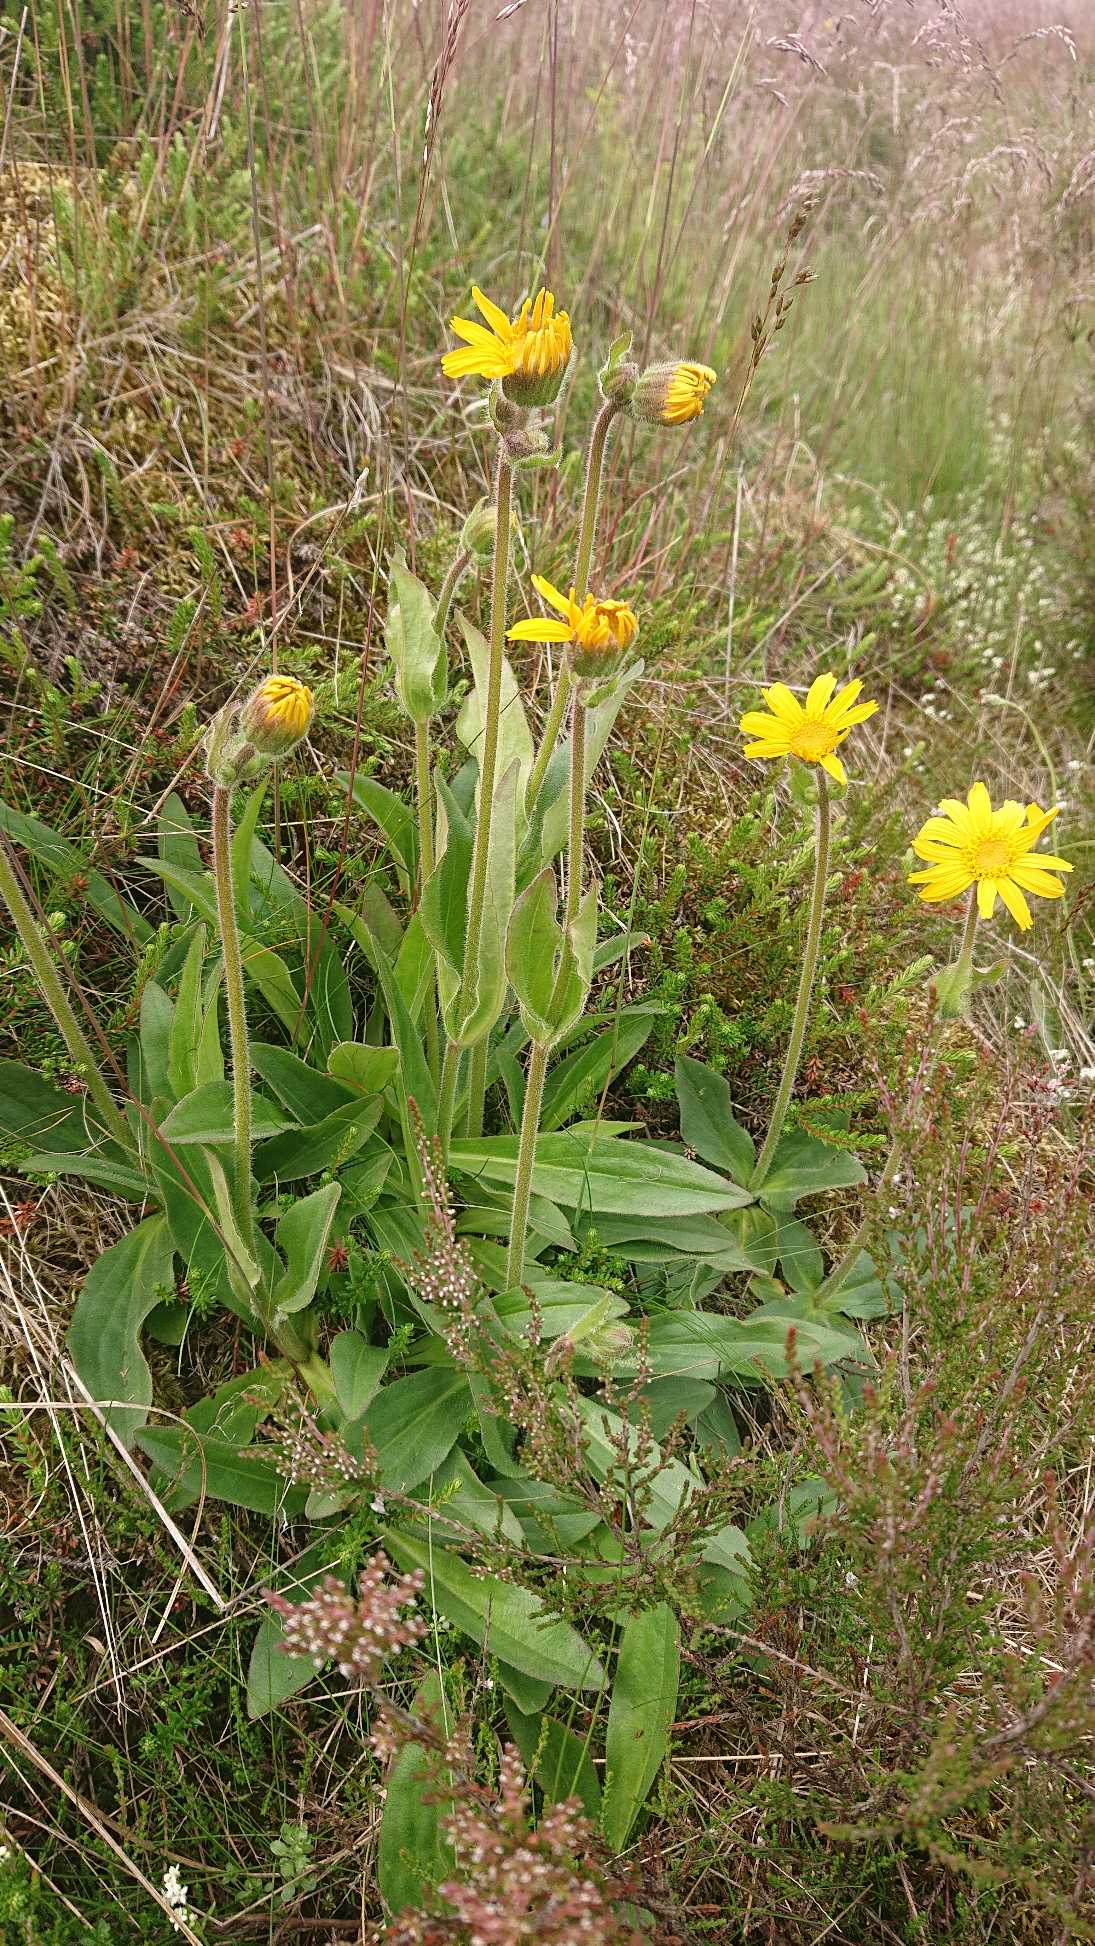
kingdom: Plantae
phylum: Tracheophyta
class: Magnoliopsida
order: Asterales
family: Asteraceae
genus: Arnica
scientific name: Arnica montana
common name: Guldblomme
